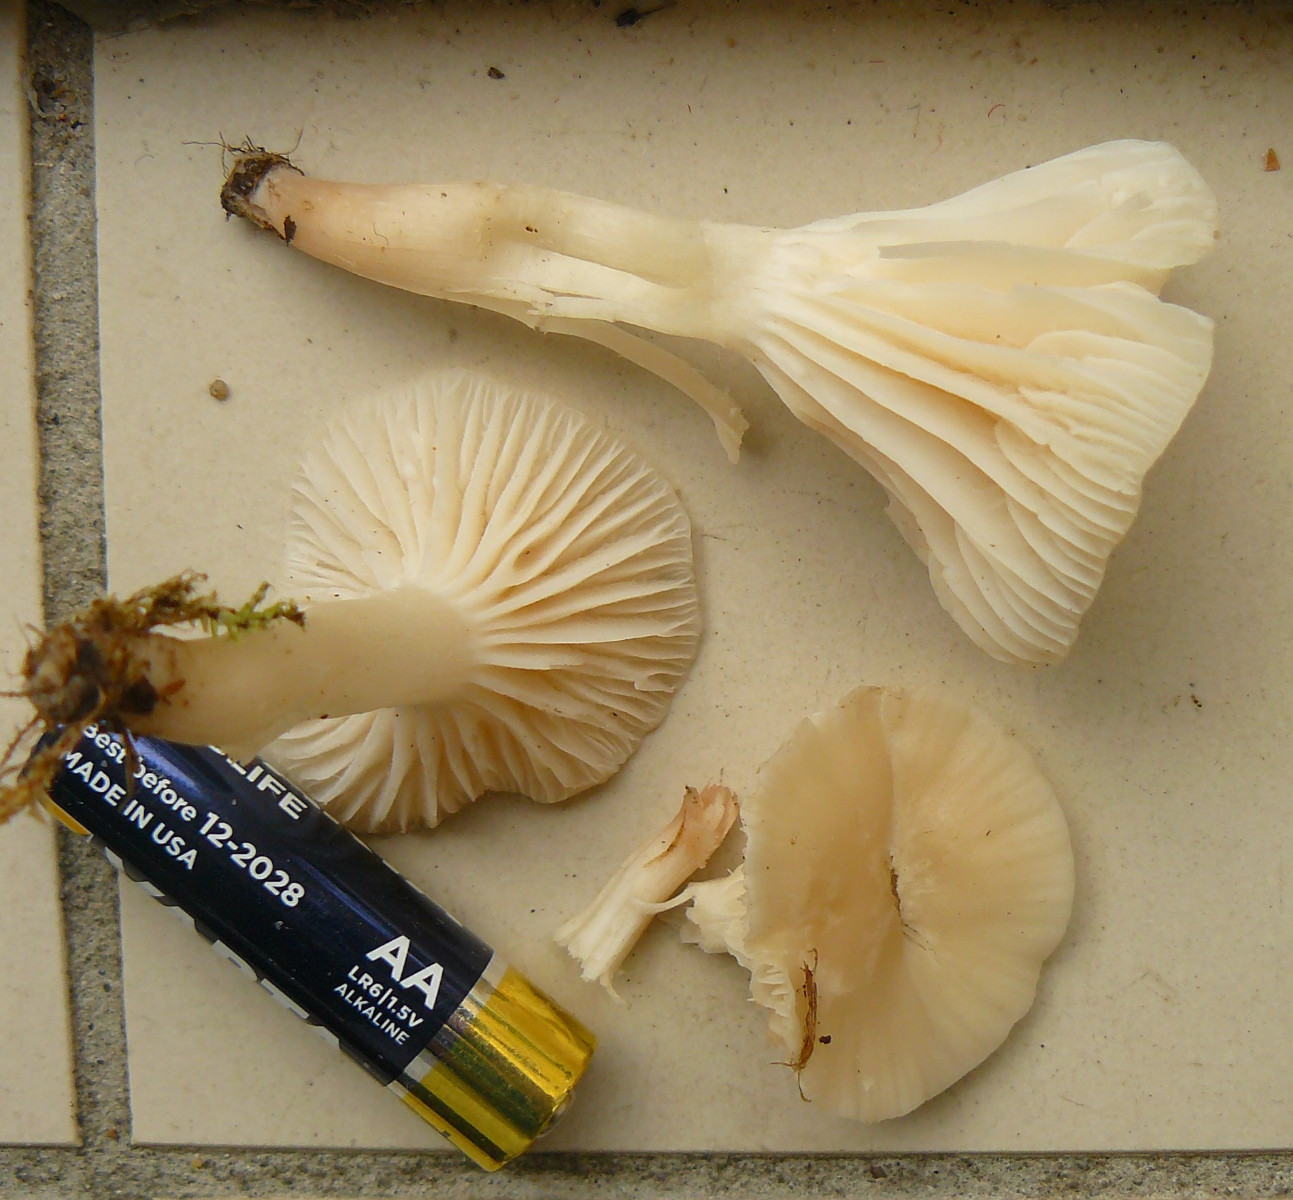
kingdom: Fungi
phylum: Basidiomycota
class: Agaricomycetes
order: Agaricales
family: Hygrophoraceae
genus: Cuphophyllus
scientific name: Cuphophyllus
